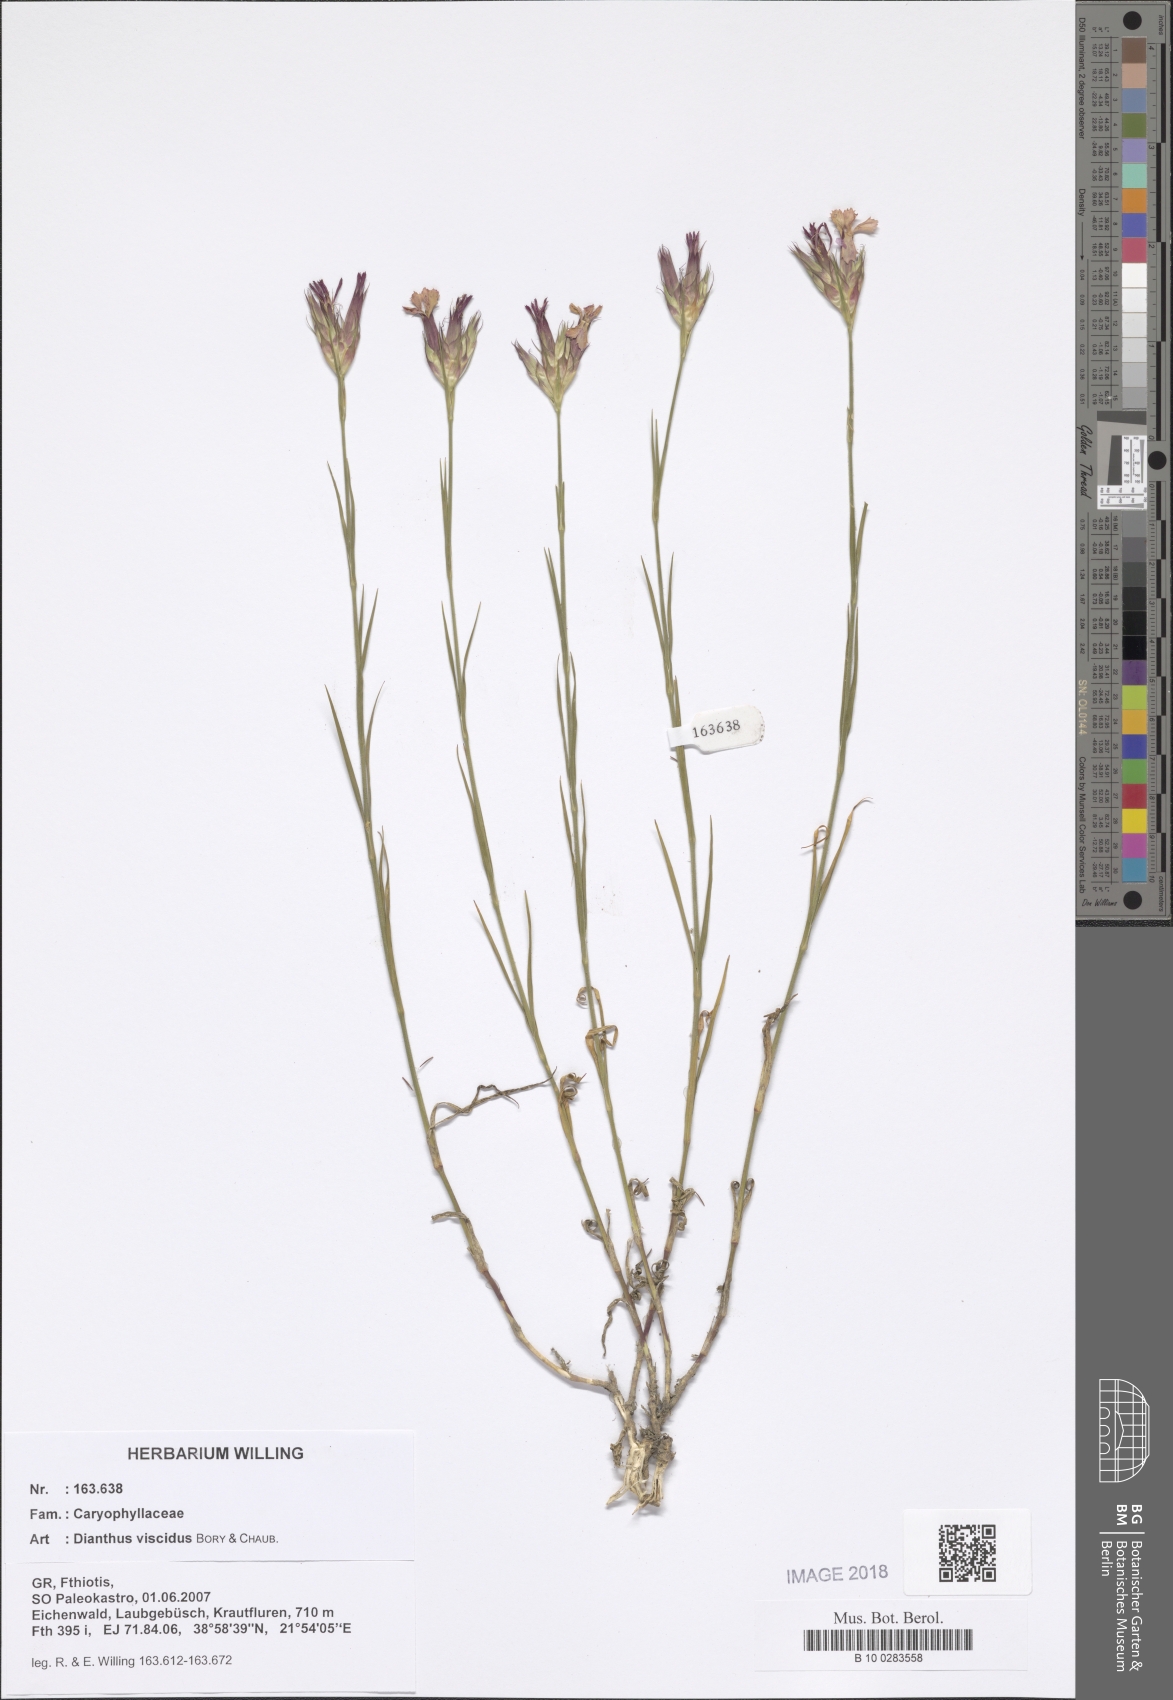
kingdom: Plantae
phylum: Tracheophyta
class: Magnoliopsida
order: Caryophyllales
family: Caryophyllaceae
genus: Dianthus
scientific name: Dianthus viscidus
